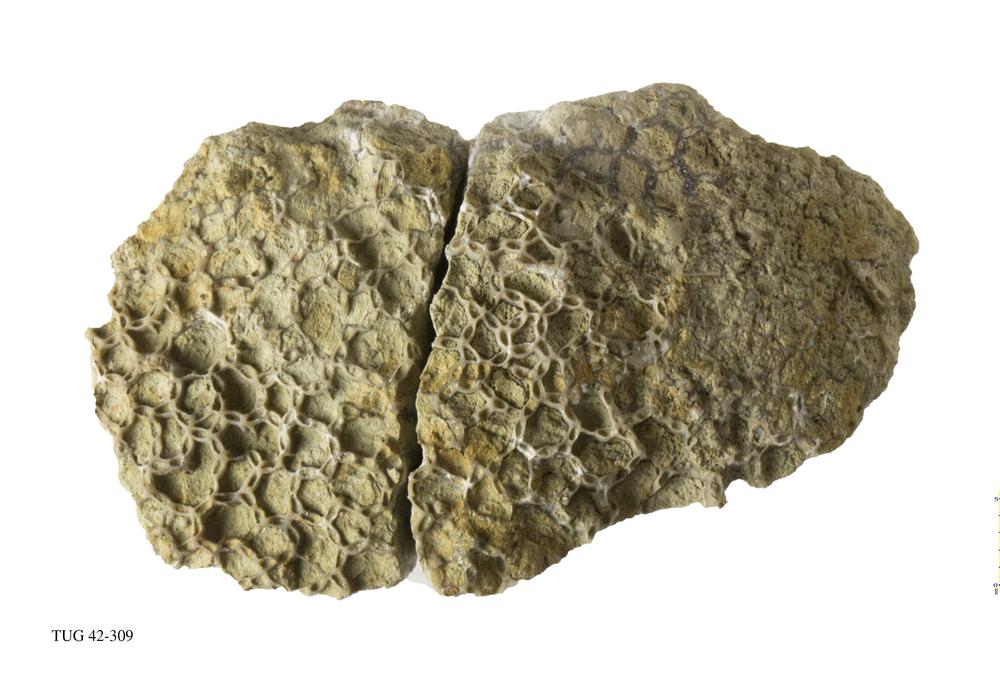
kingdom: Animalia
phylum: Cnidaria
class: Anthozoa
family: Cateniporidae
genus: Catenipora
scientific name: Catenipora exilis
